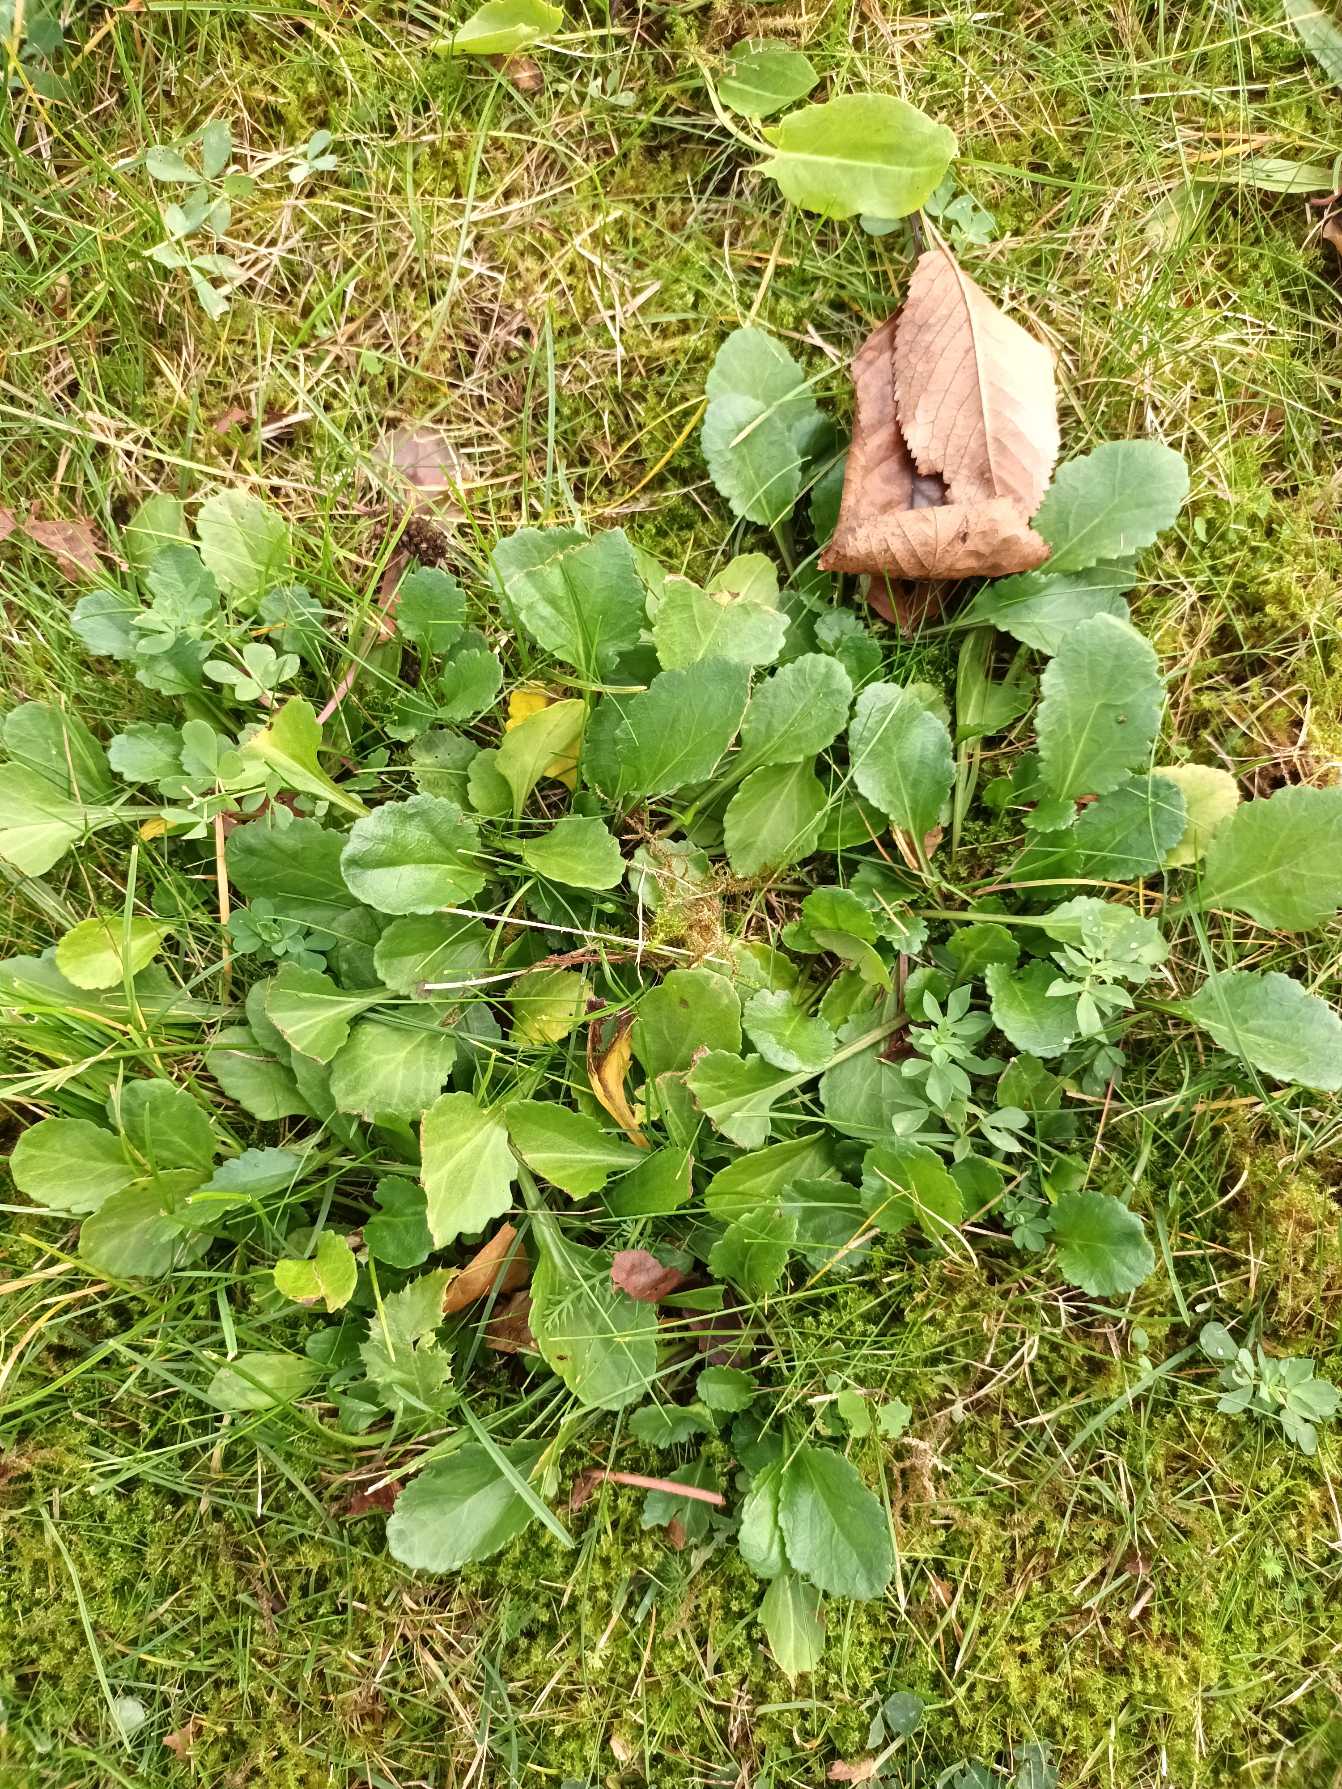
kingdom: Plantae
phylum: Tracheophyta
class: Magnoliopsida
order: Asterales
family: Asteraceae
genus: Leucanthemum
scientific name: Leucanthemum vulgare
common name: Hvid okseøje
